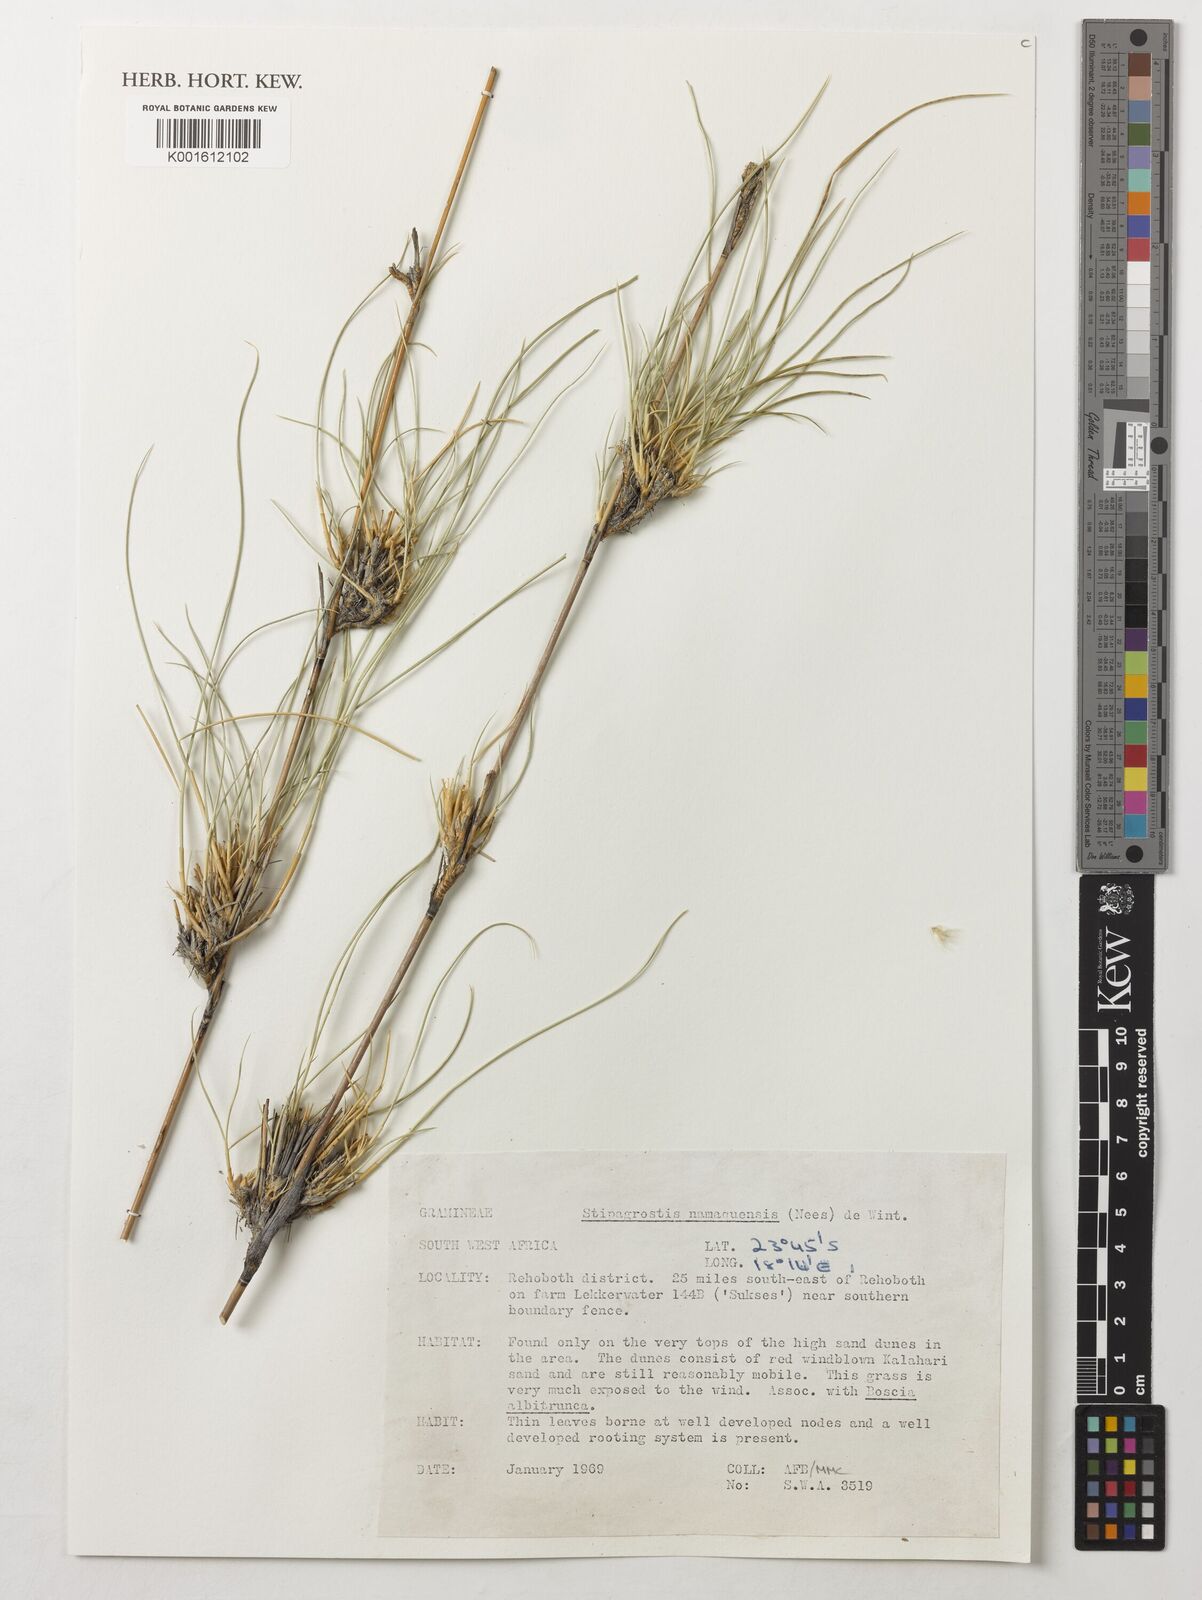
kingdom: Plantae
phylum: Tracheophyta
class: Liliopsida
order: Poales
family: Poaceae
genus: Stipagrostis
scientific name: Stipagrostis namaquensis
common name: River bushman grass
